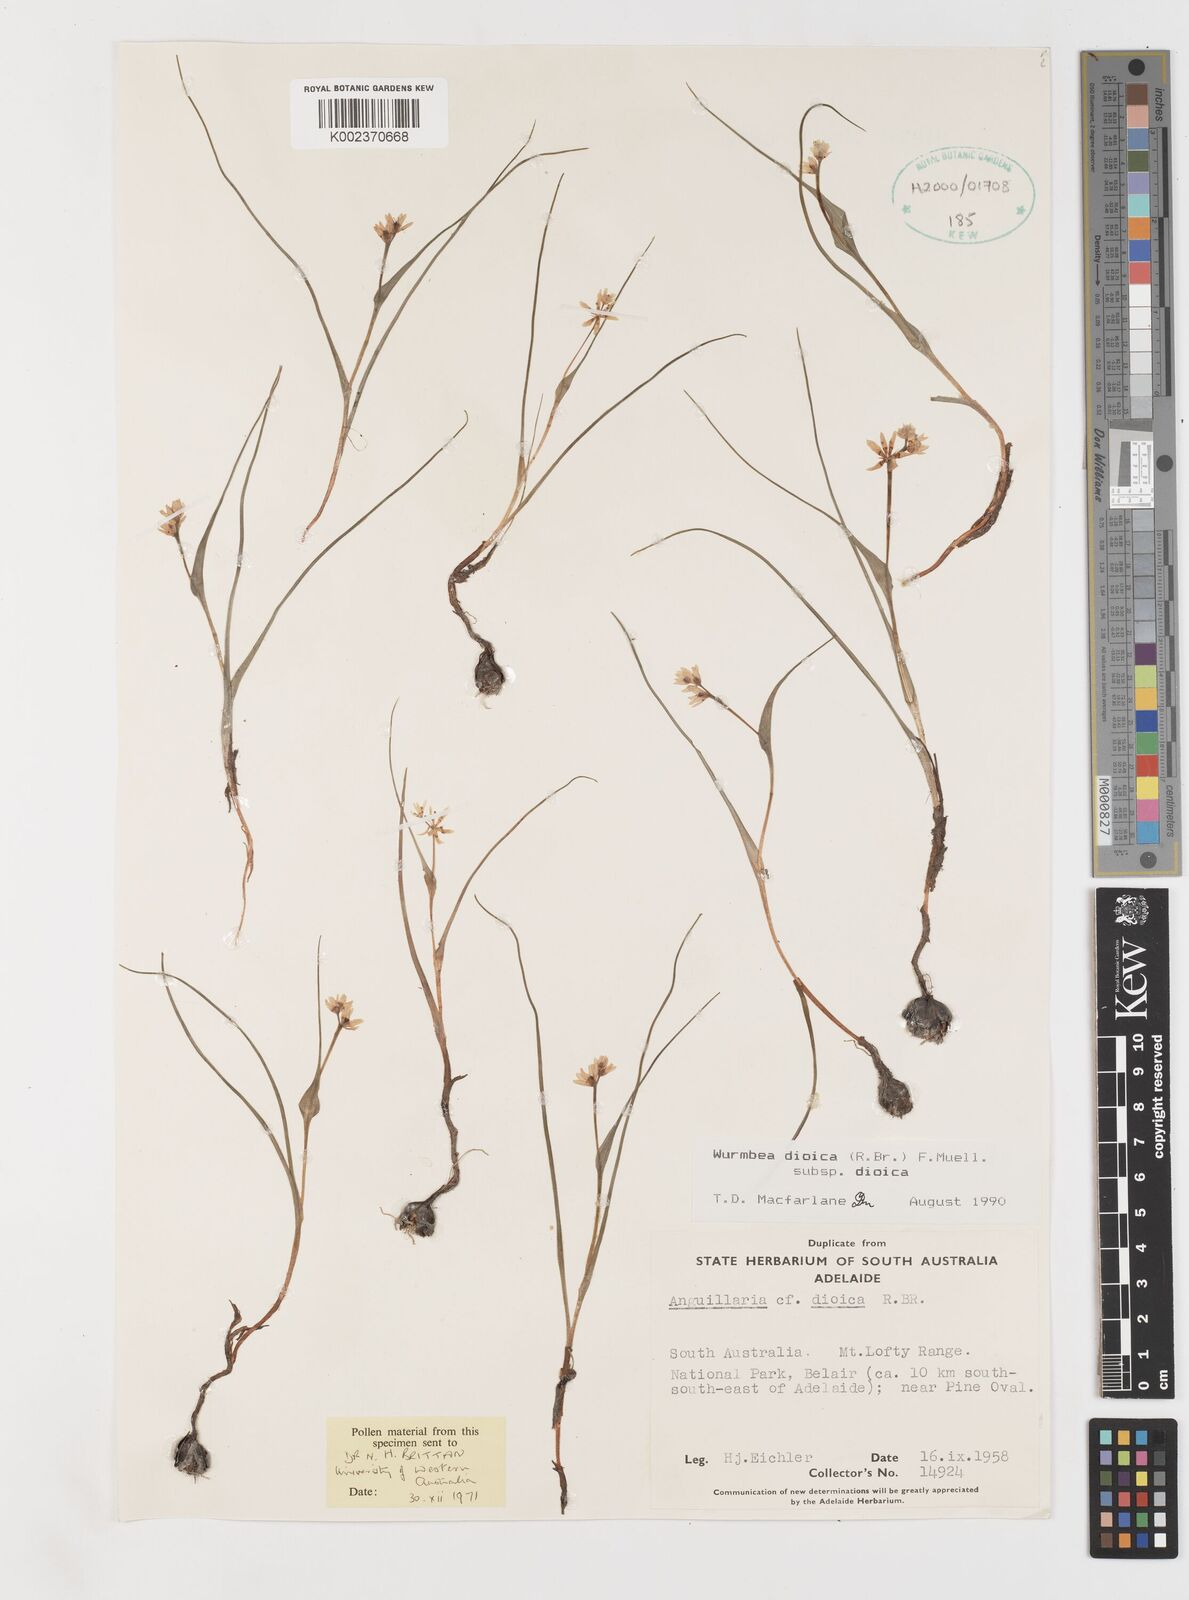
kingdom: Plantae
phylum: Tracheophyta
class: Liliopsida
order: Liliales
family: Colchicaceae
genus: Wurmbea
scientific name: Wurmbea dioica
